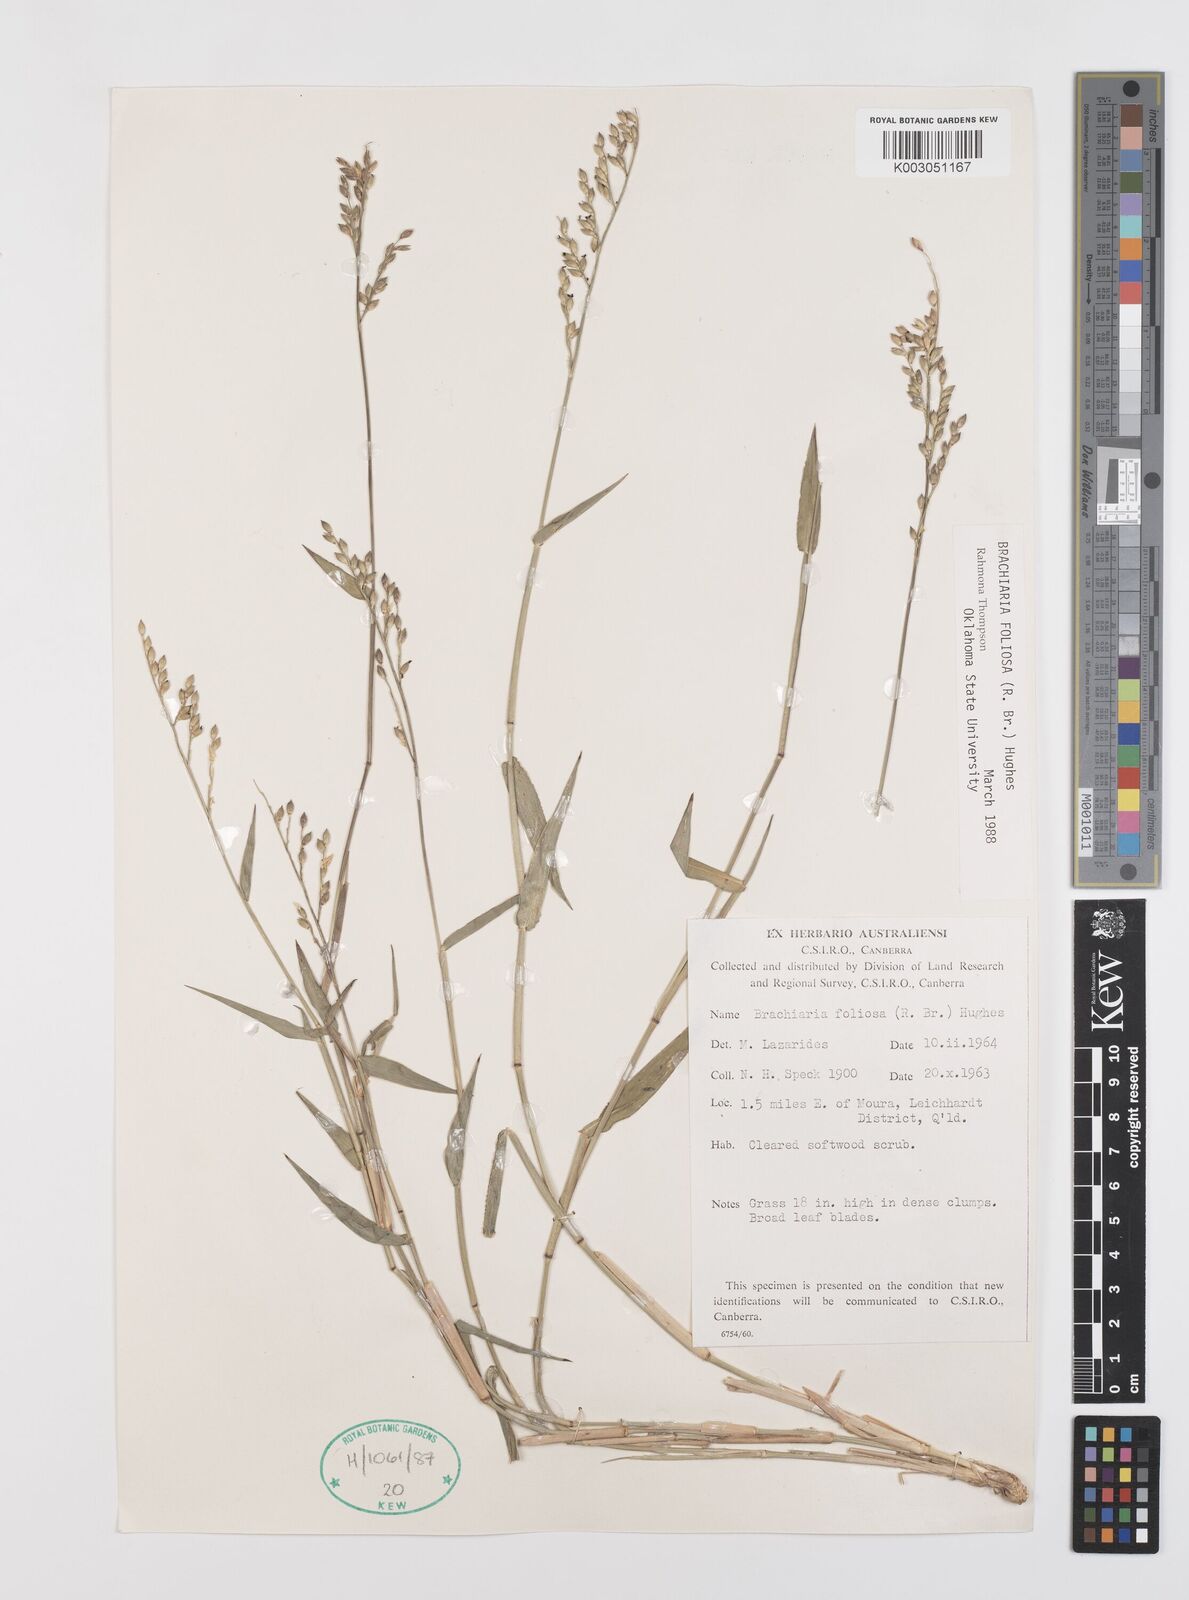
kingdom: Plantae
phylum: Tracheophyta
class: Liliopsida
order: Poales
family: Poaceae
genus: Urochloa
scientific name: Urochloa foliosa
